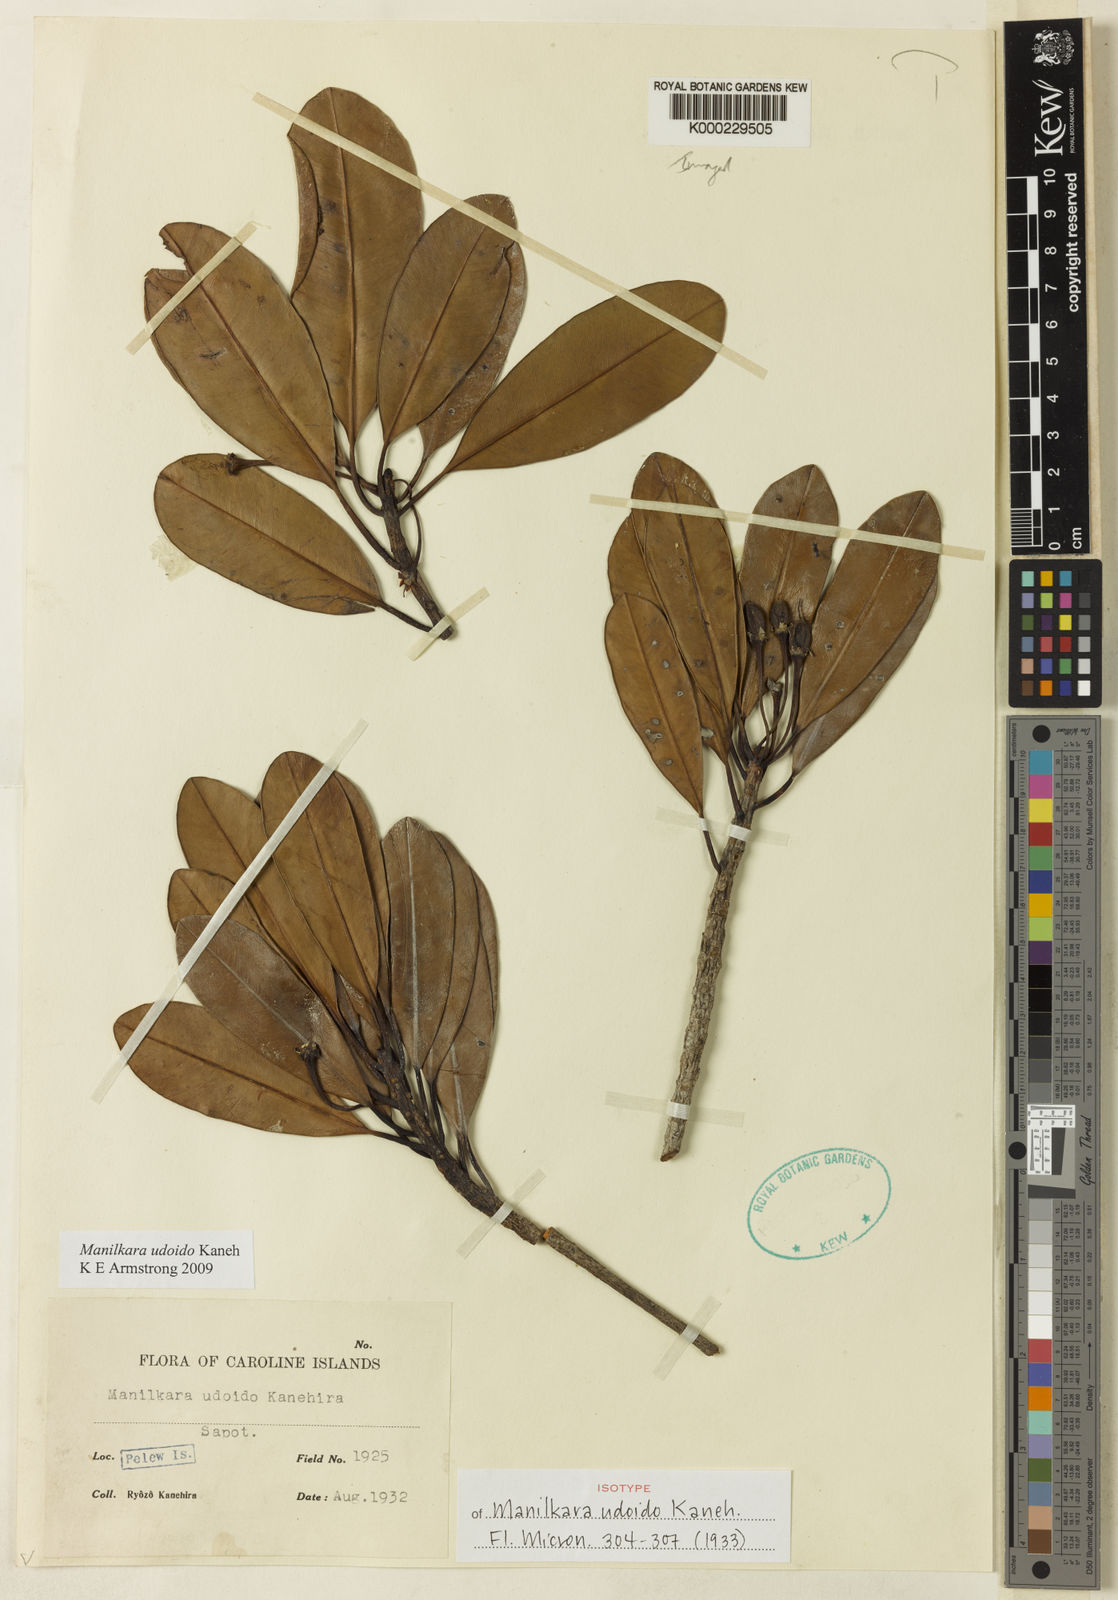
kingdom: Plantae
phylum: Tracheophyta
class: Magnoliopsida
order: Ericales
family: Sapotaceae
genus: Manilkara
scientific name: Manilkara udoido
